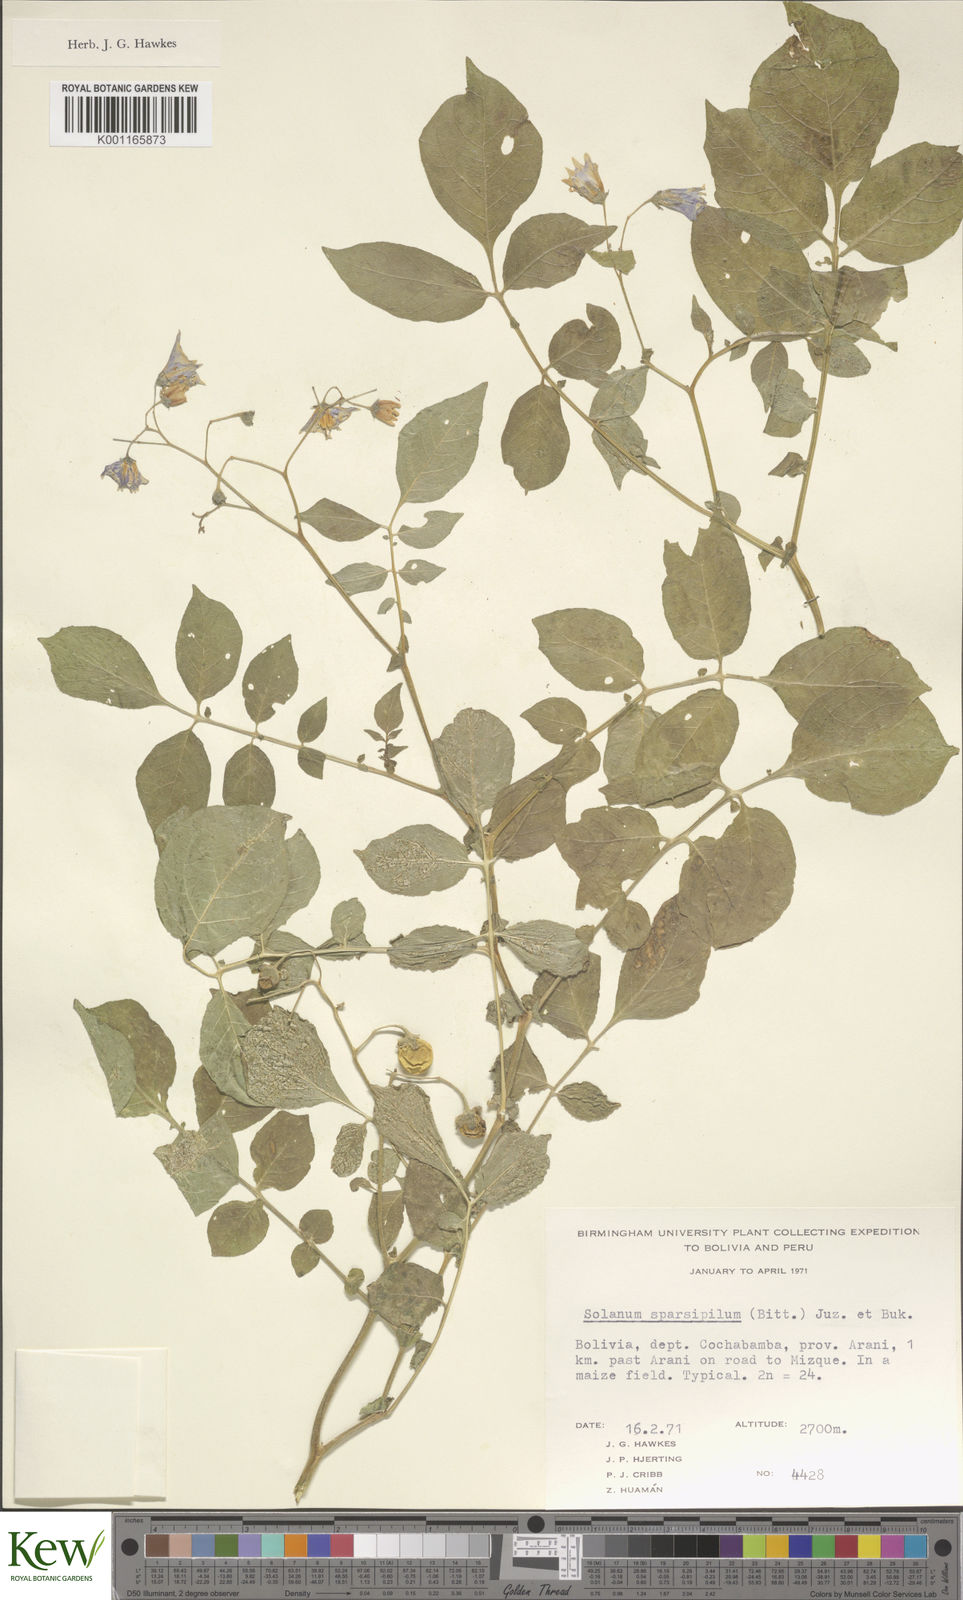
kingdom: Plantae
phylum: Tracheophyta
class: Magnoliopsida
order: Solanales
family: Solanaceae
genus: Solanum
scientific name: Solanum brevicaule
